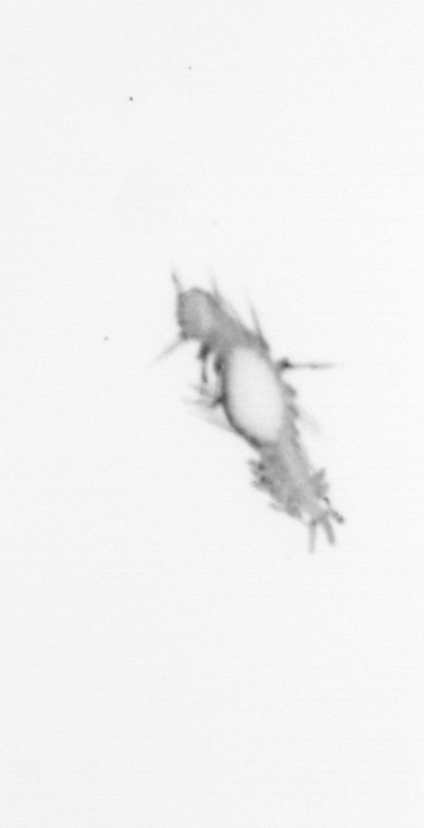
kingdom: Animalia
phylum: Annelida
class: Polychaeta
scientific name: Polychaeta
